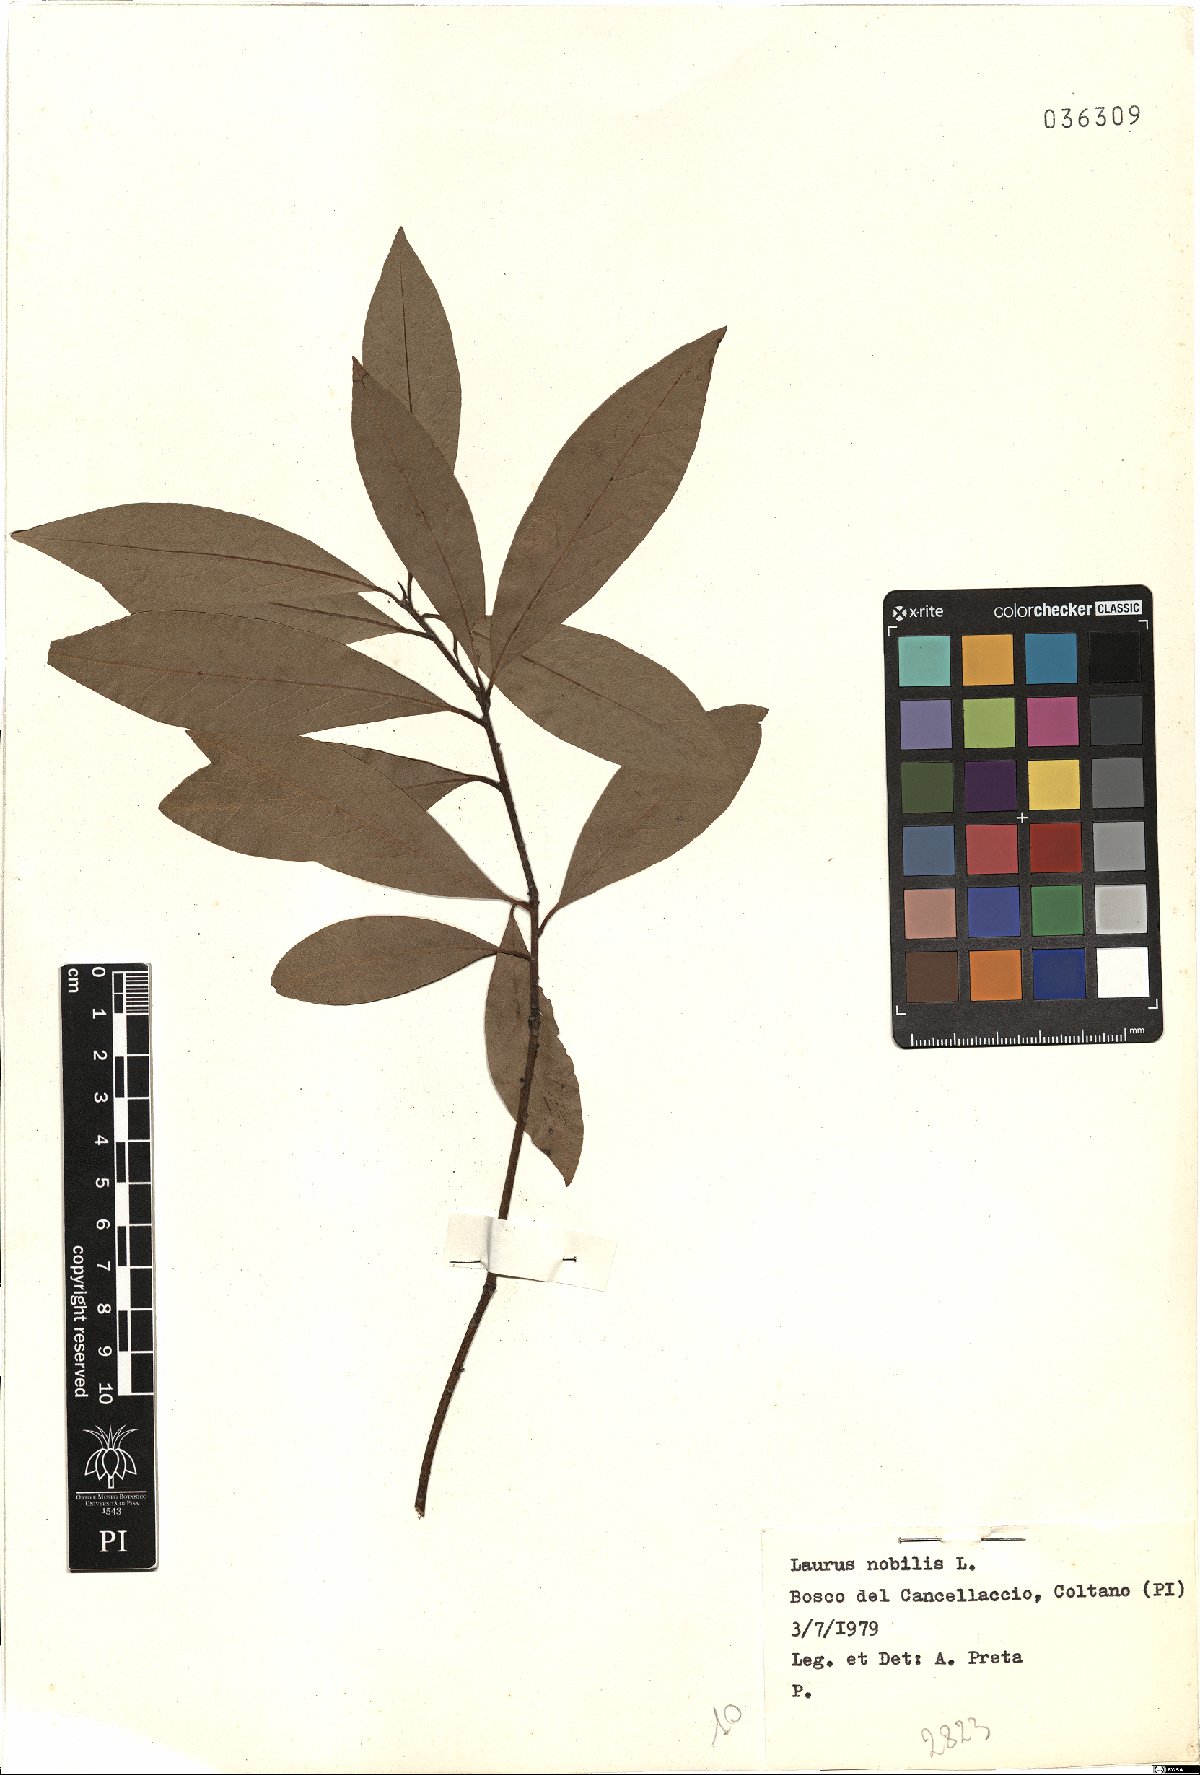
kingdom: Plantae
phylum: Tracheophyta
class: Magnoliopsida
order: Laurales
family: Lauraceae
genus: Laurus
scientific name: Laurus nobilis
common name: Bay
